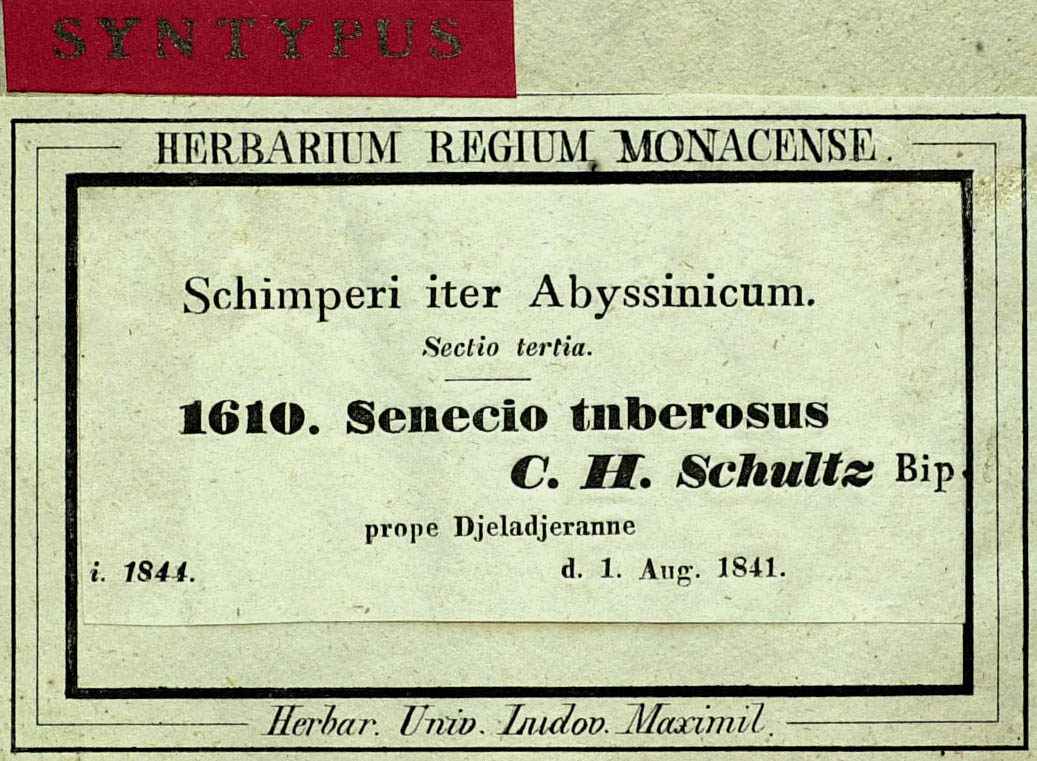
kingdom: Plantae
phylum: Tracheophyta
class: Magnoliopsida
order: Asterales
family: Asteraceae
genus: Solanecio
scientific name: Solanecio tuberosus
